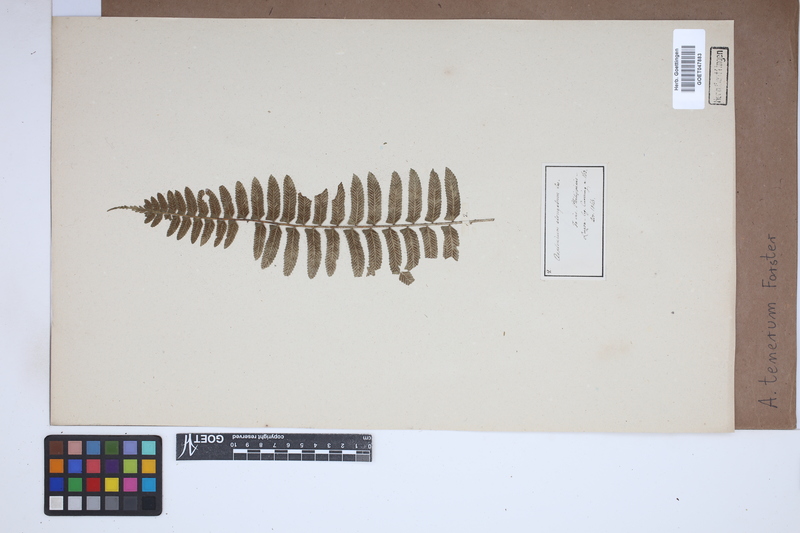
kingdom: Plantae
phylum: Tracheophyta
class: Polypodiopsida
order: Polypodiales
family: Aspleniaceae
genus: Asplenium
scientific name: Asplenium tenerum
